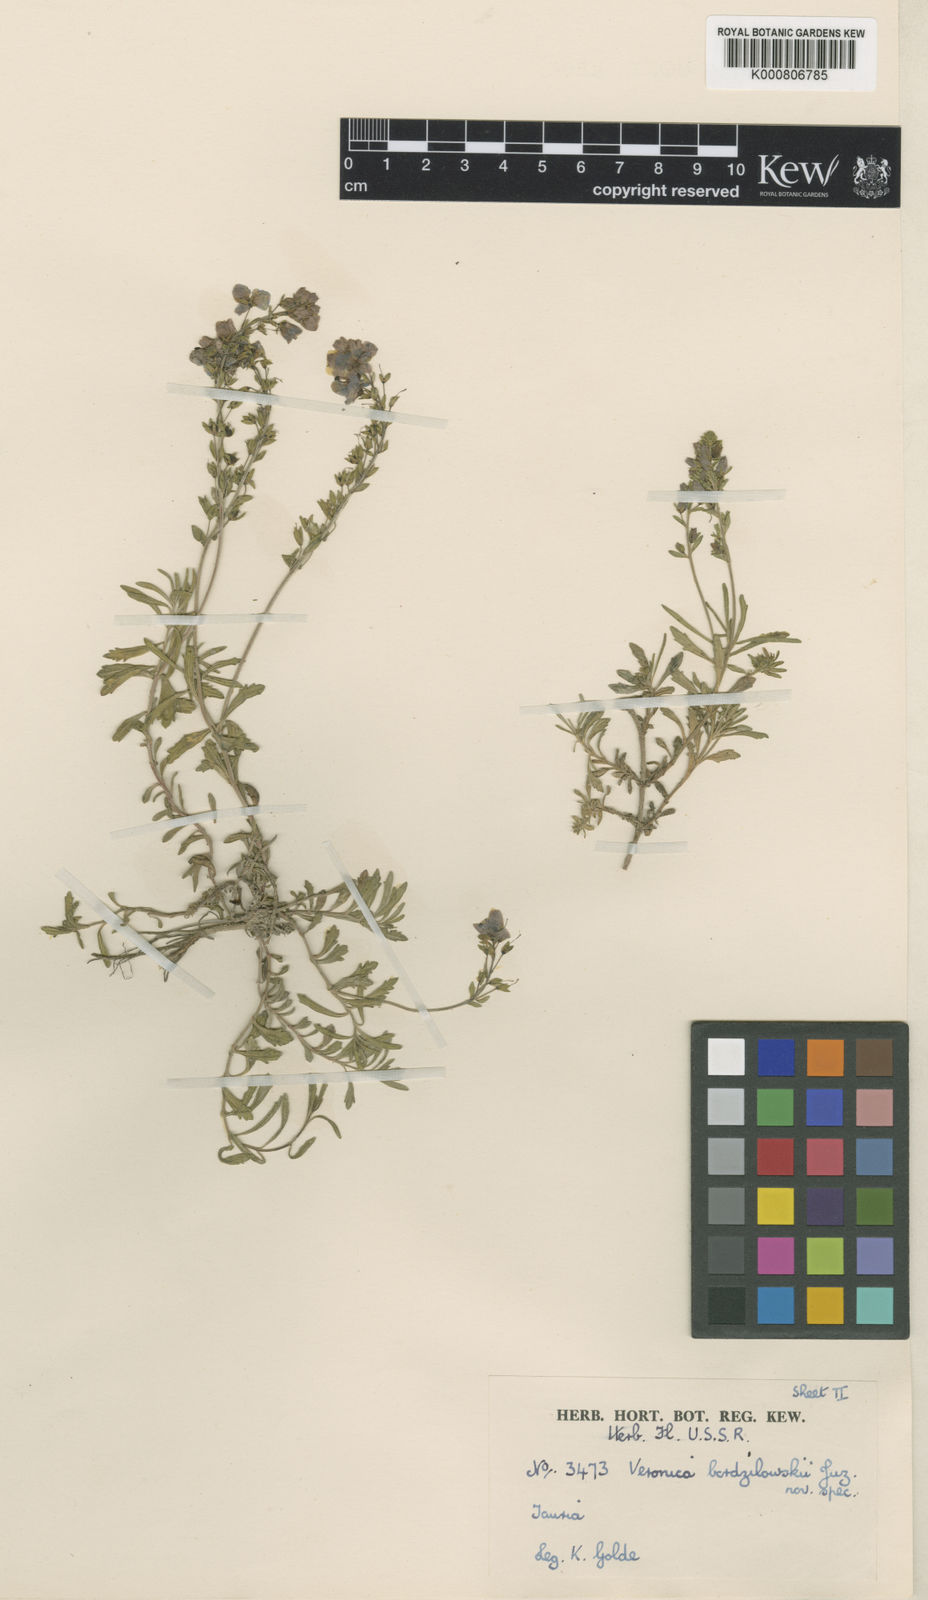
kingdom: Plantae
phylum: Tracheophyta
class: Magnoliopsida
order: Lamiales
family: Plantaginaceae
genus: Veronica
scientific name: Veronica orientalis
